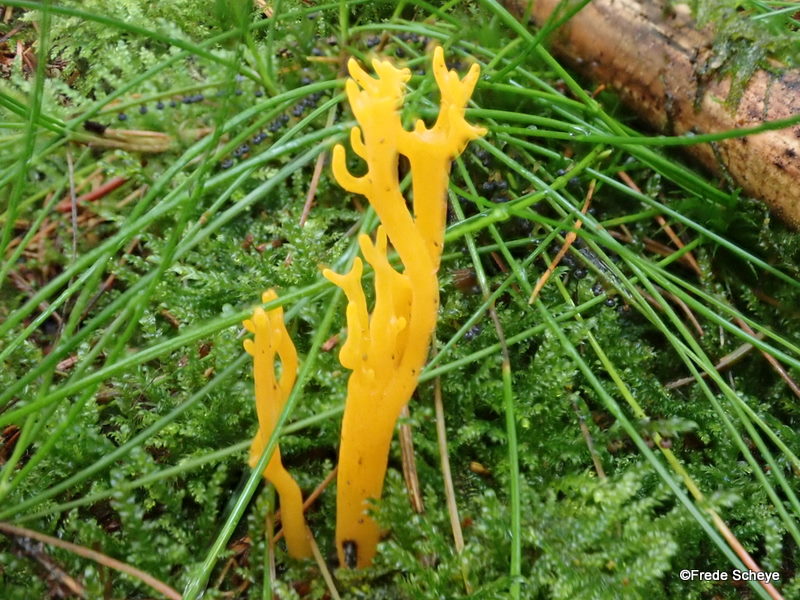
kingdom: Fungi
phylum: Basidiomycota
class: Dacrymycetes
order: Dacrymycetales
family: Dacrymycetaceae
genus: Calocera
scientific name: Calocera viscosa
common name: almindelig guldgaffel
